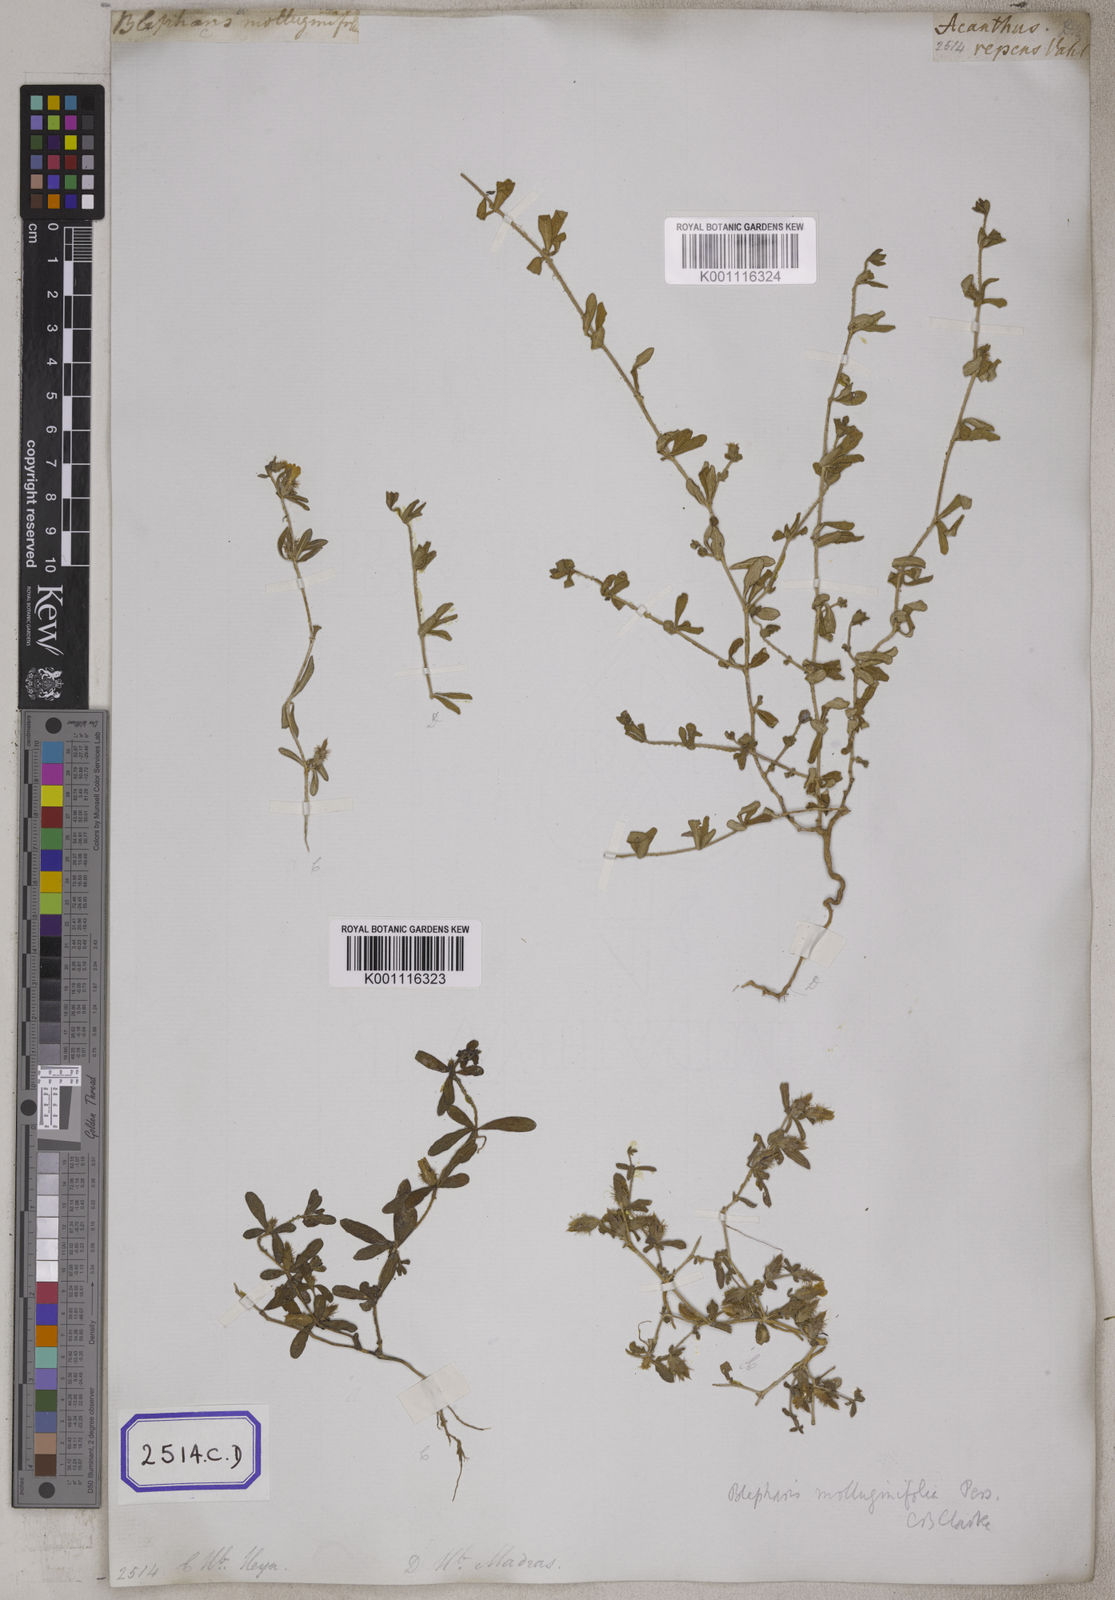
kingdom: Plantae
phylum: Tracheophyta
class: Magnoliopsida
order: Lamiales
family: Acanthaceae
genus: Blepharis
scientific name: Blepharis integrifolia
